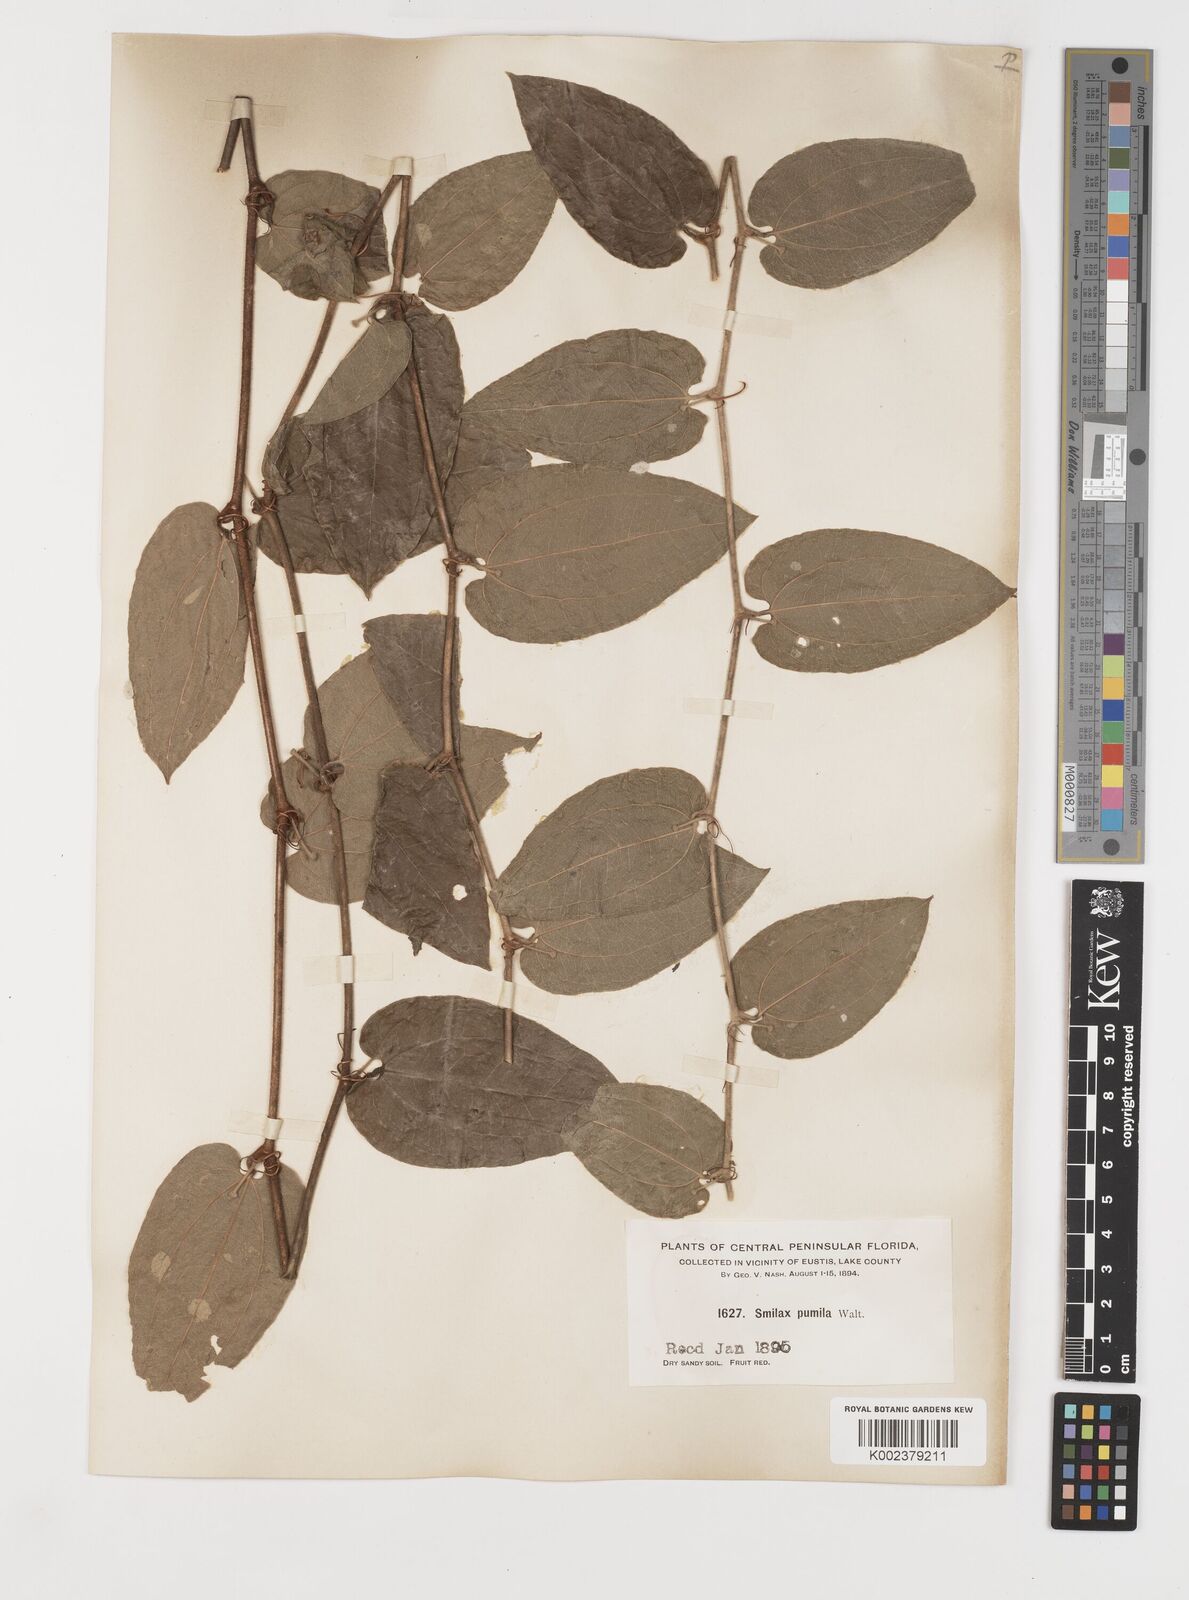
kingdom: Plantae
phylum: Tracheophyta
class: Liliopsida
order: Liliales
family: Smilacaceae
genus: Smilax
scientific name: Smilax pumila
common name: Sarsaparilla-vine
